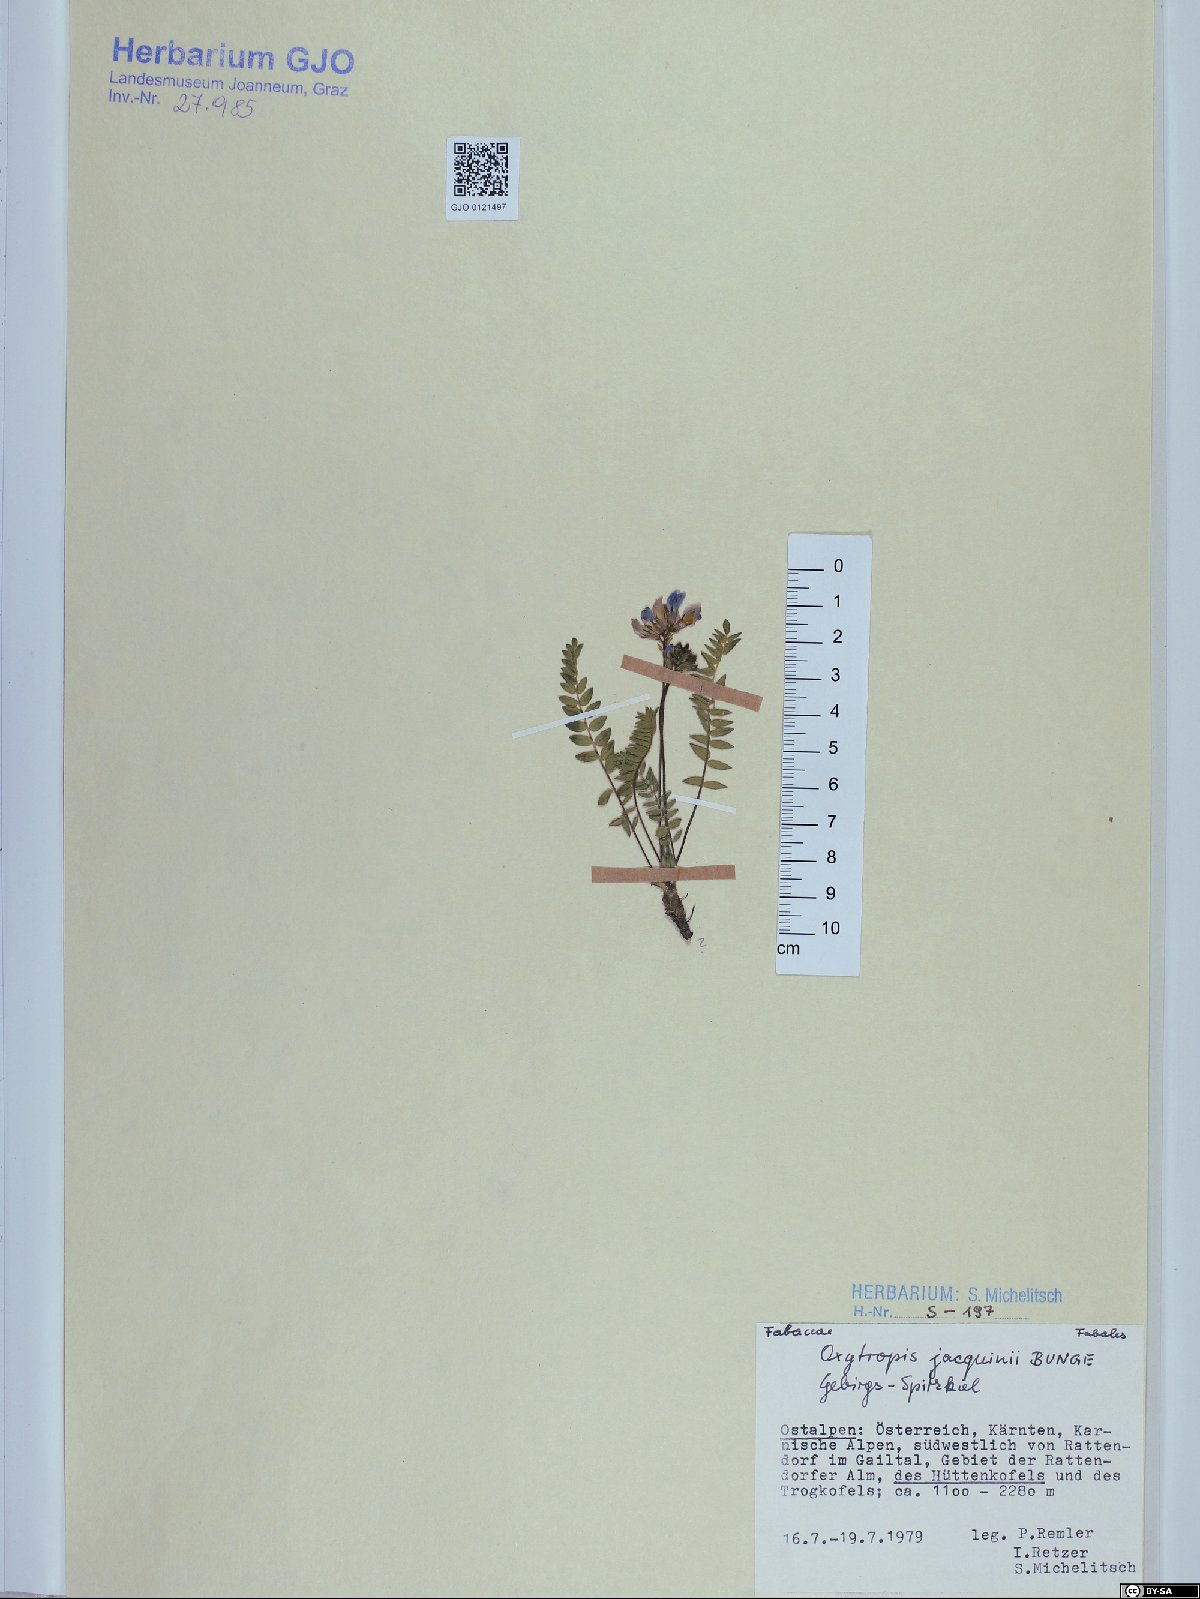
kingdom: Plantae
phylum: Tracheophyta
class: Magnoliopsida
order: Fabales
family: Fabaceae
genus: Oxytropis
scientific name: Oxytropis montana
